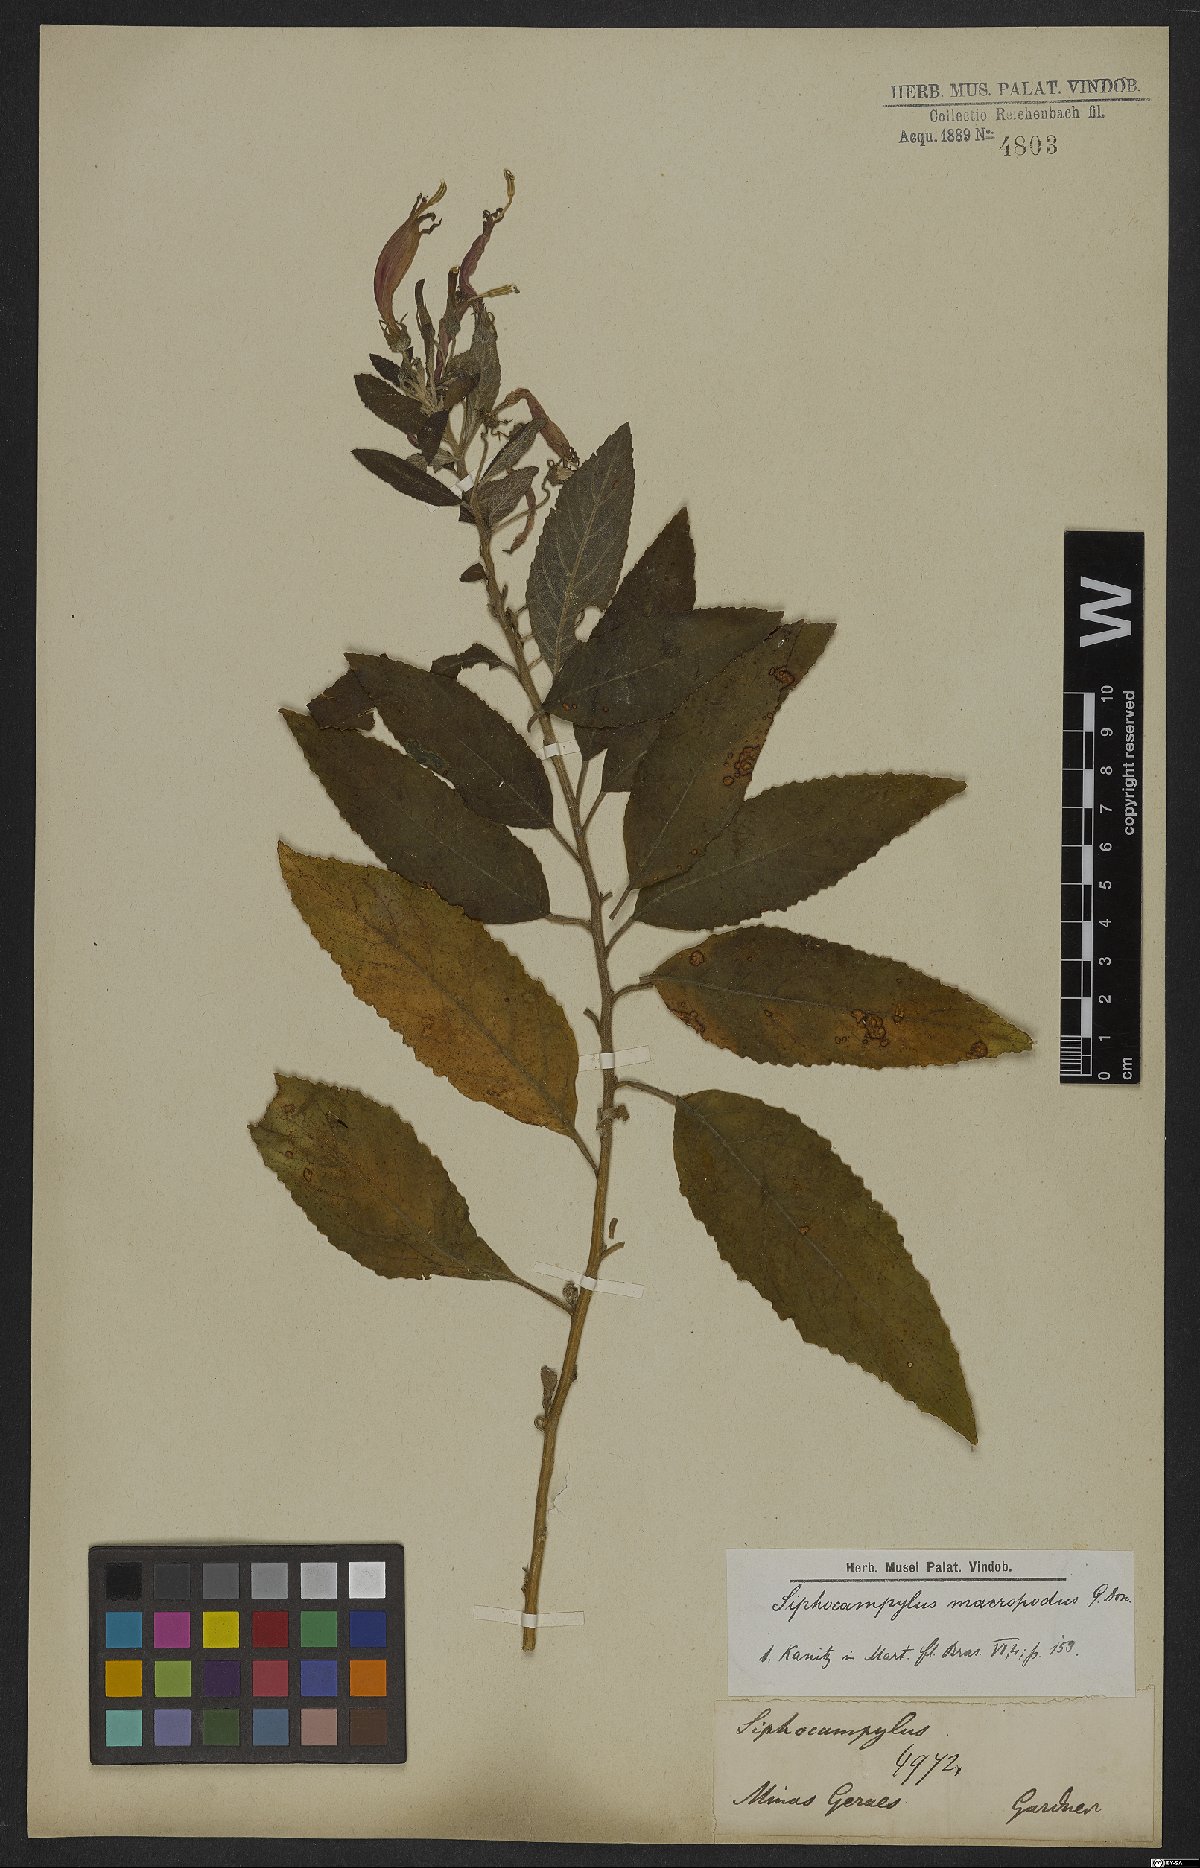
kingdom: Plantae
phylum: Tracheophyta
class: Magnoliopsida
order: Asterales
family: Campanulaceae
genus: Siphocampylus
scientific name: Siphocampylus macropodus
